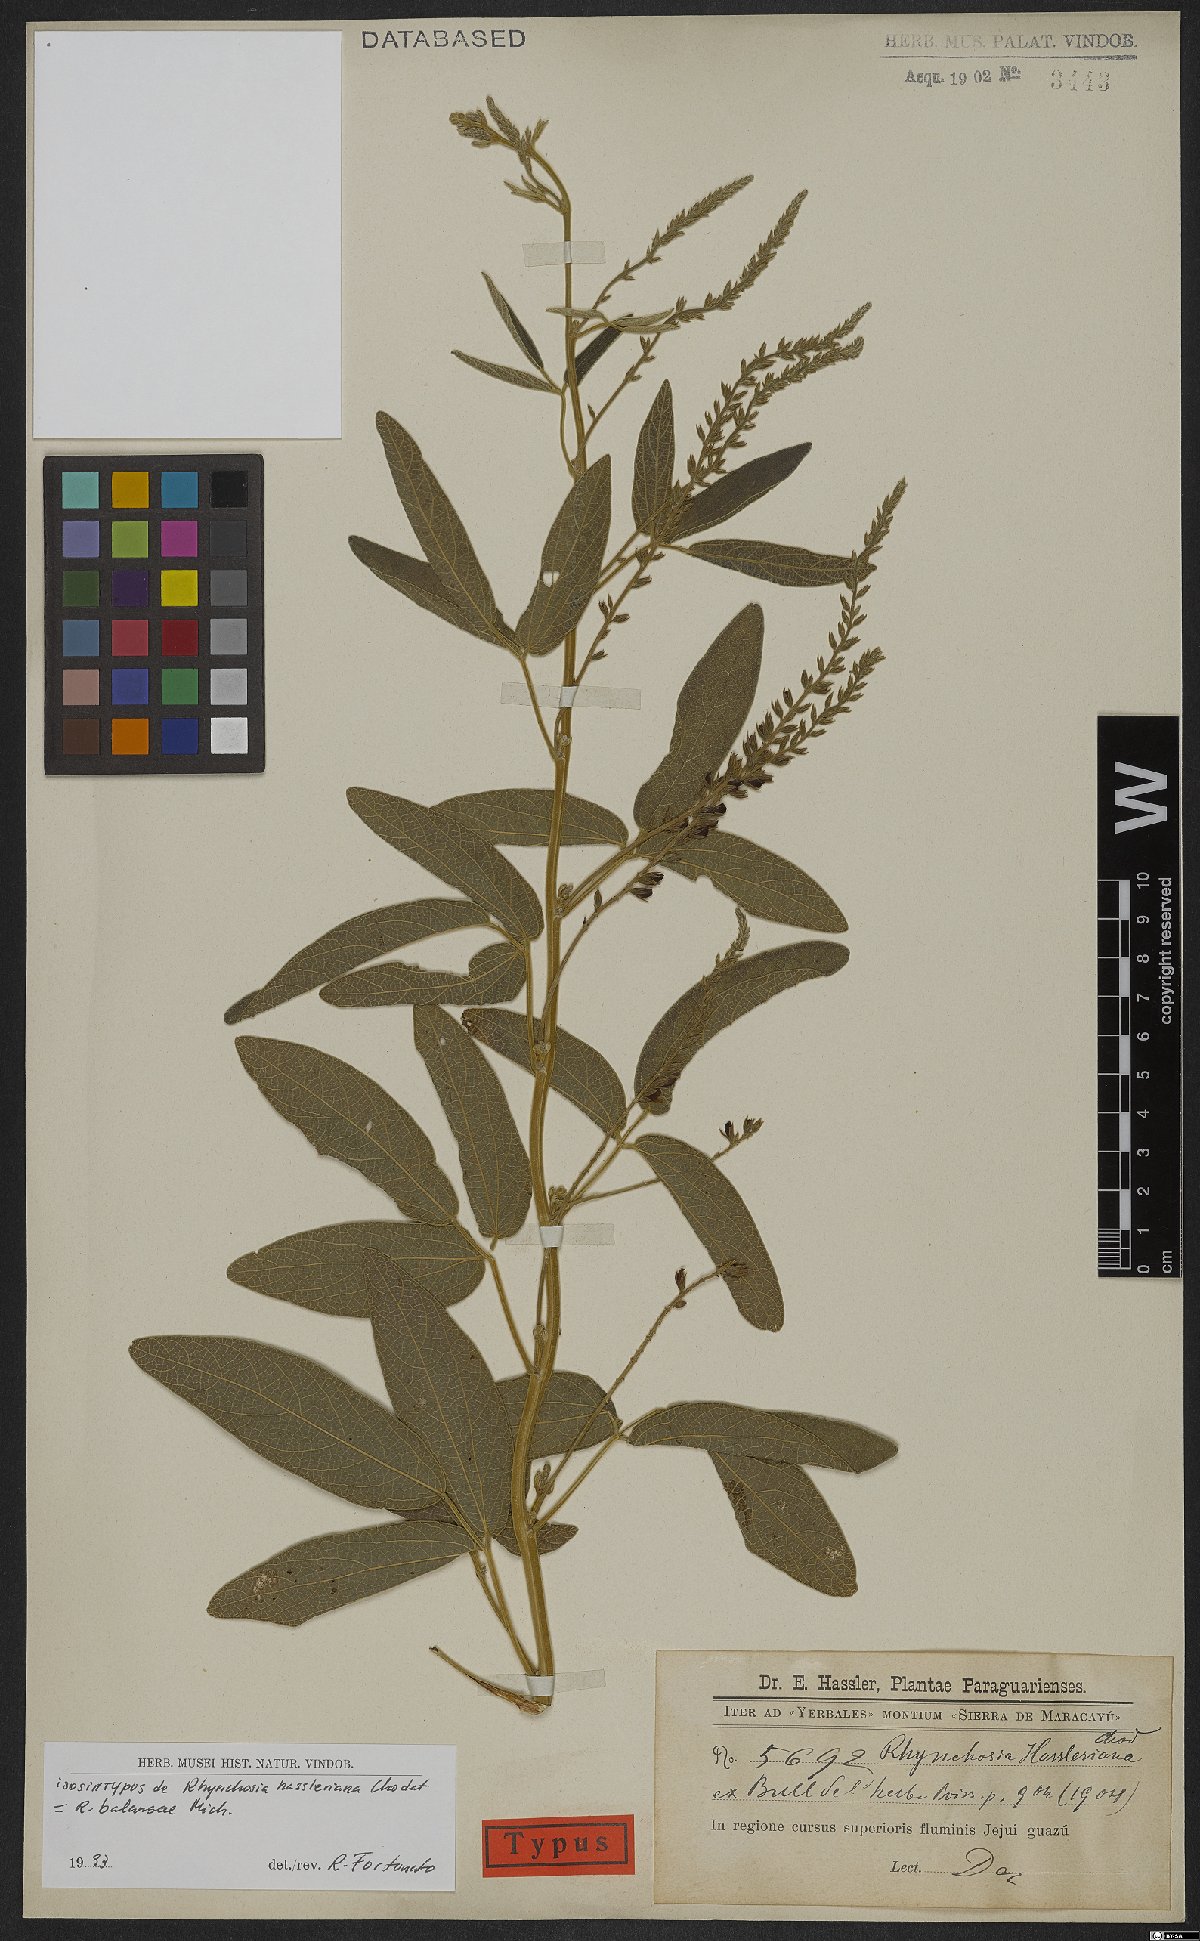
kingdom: Plantae
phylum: Tracheophyta
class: Magnoliopsida
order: Fabales
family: Fabaceae
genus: Rhynchosia
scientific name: Rhynchosia balansae
